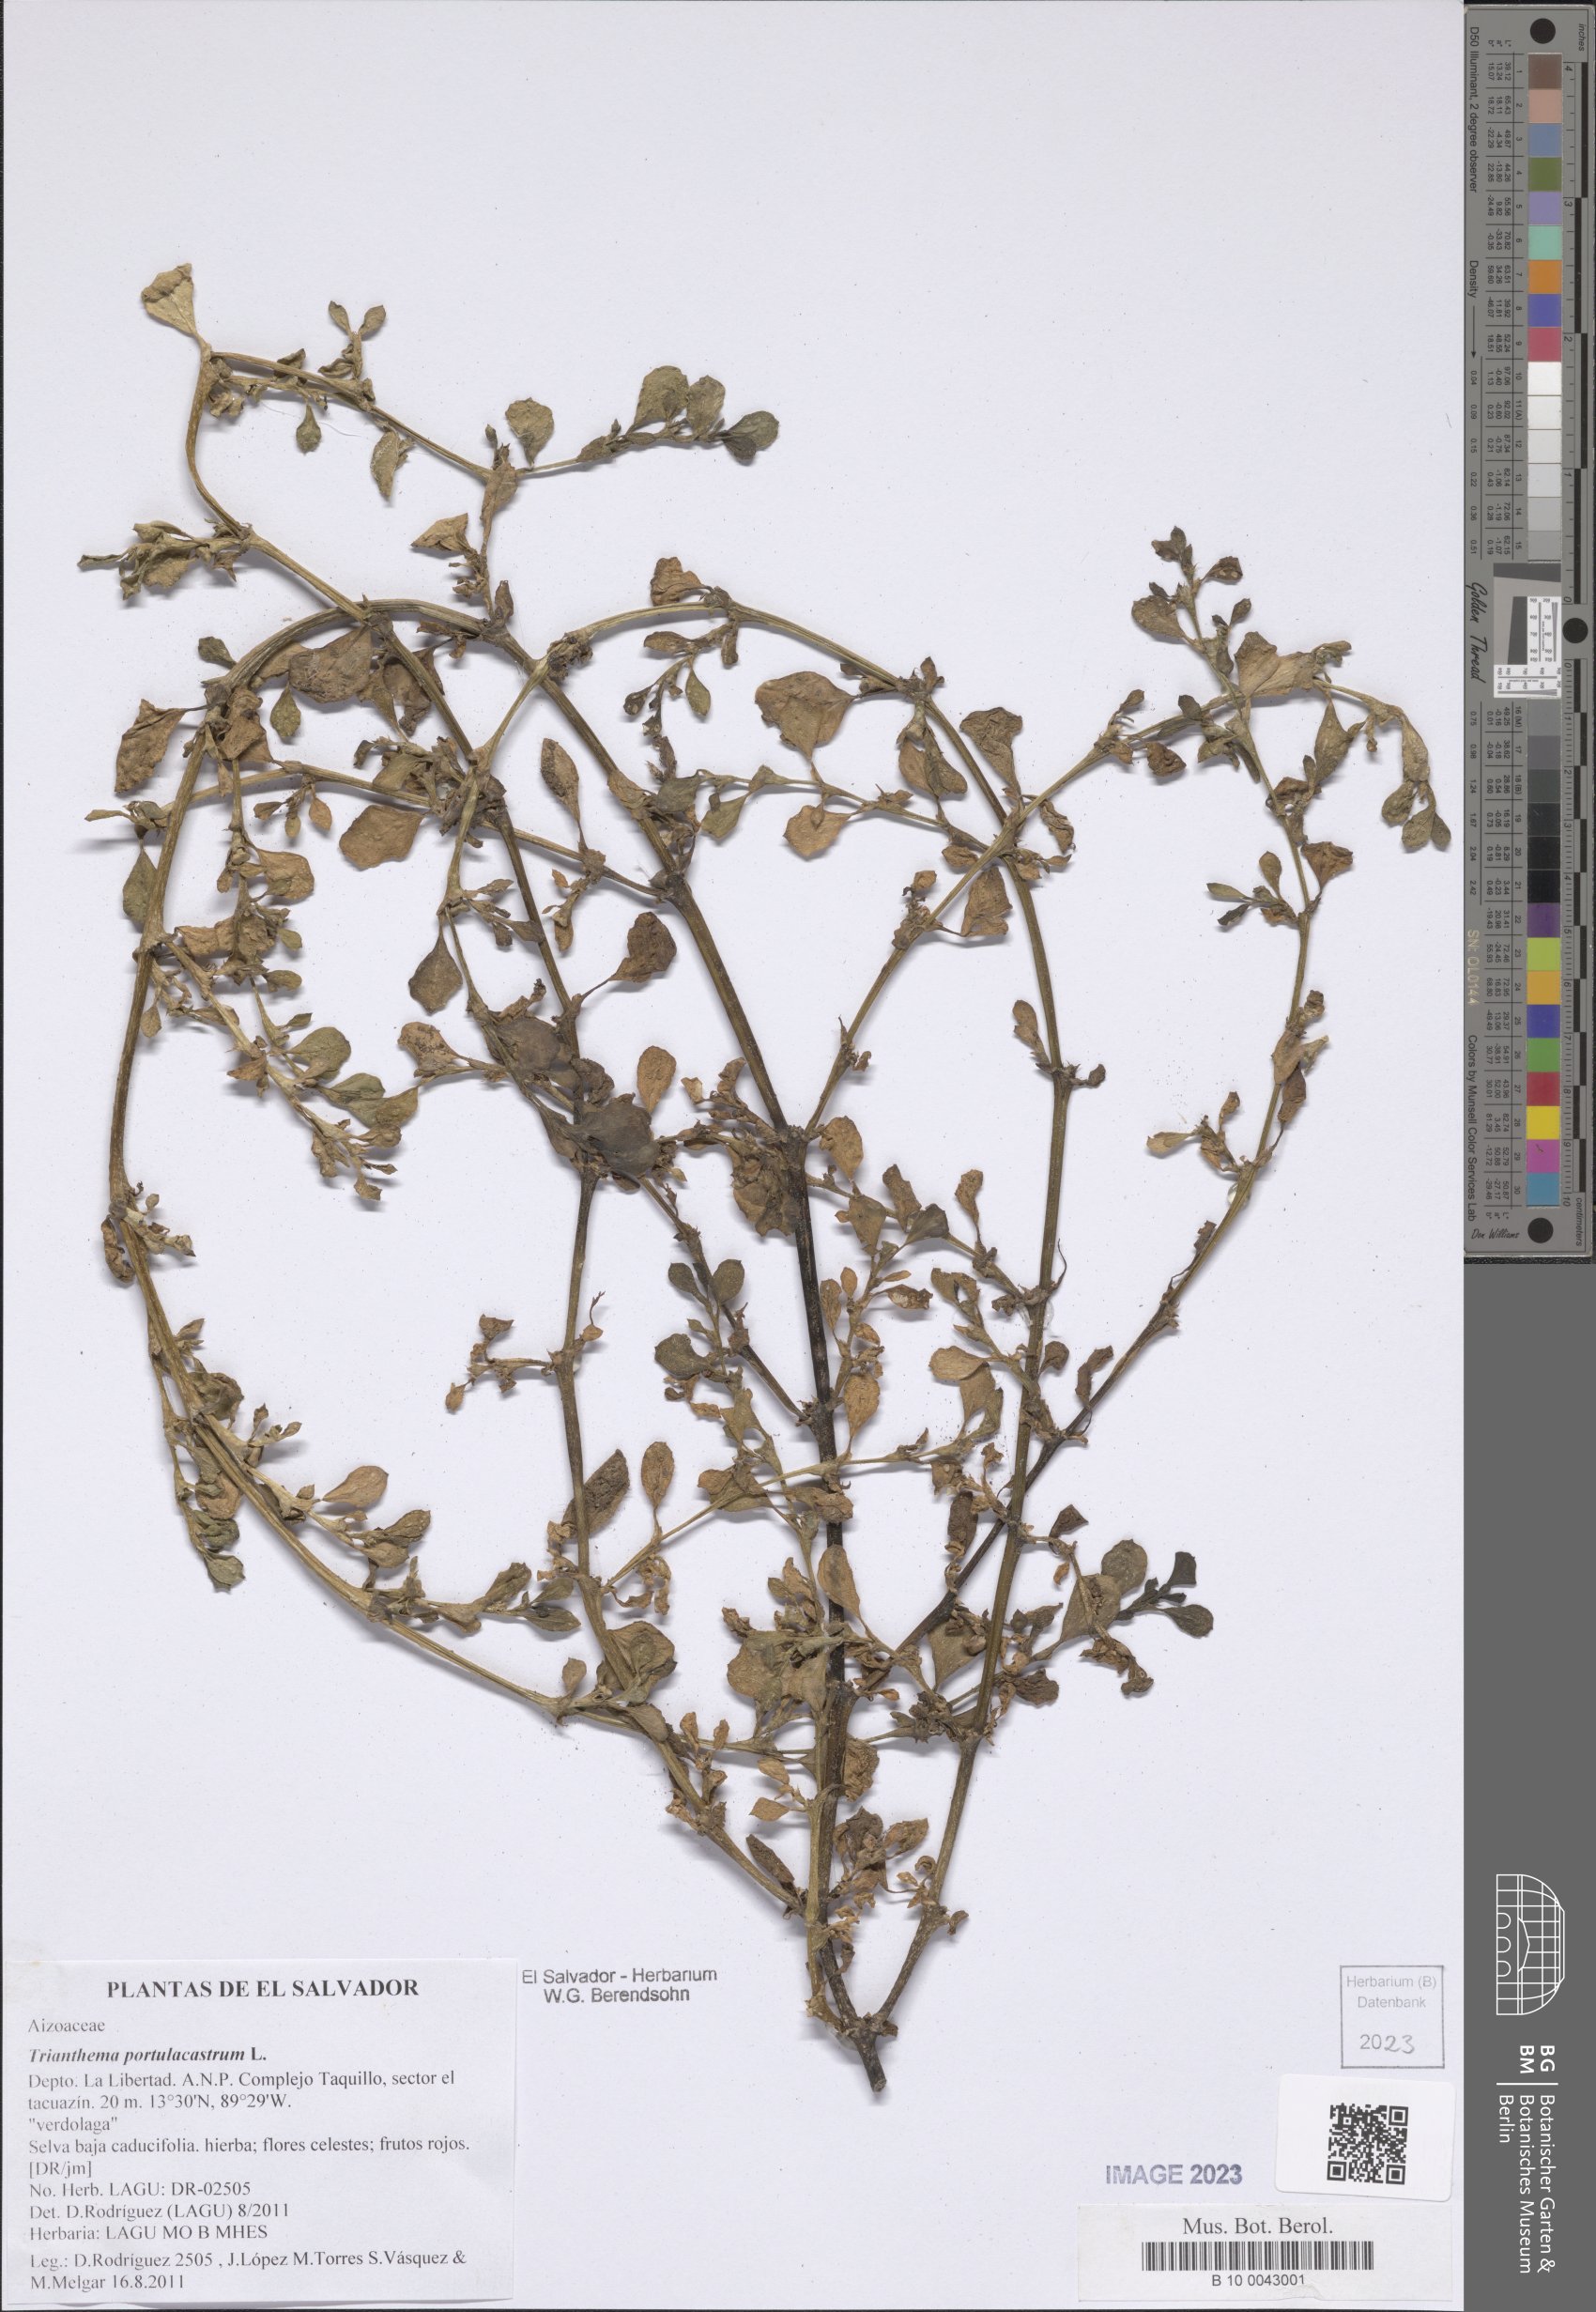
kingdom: Plantae
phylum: Tracheophyta
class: Magnoliopsida
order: Caryophyllales
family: Aizoaceae
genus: Trianthema
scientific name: Trianthema portulacastrum
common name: Desert horsepurslane
